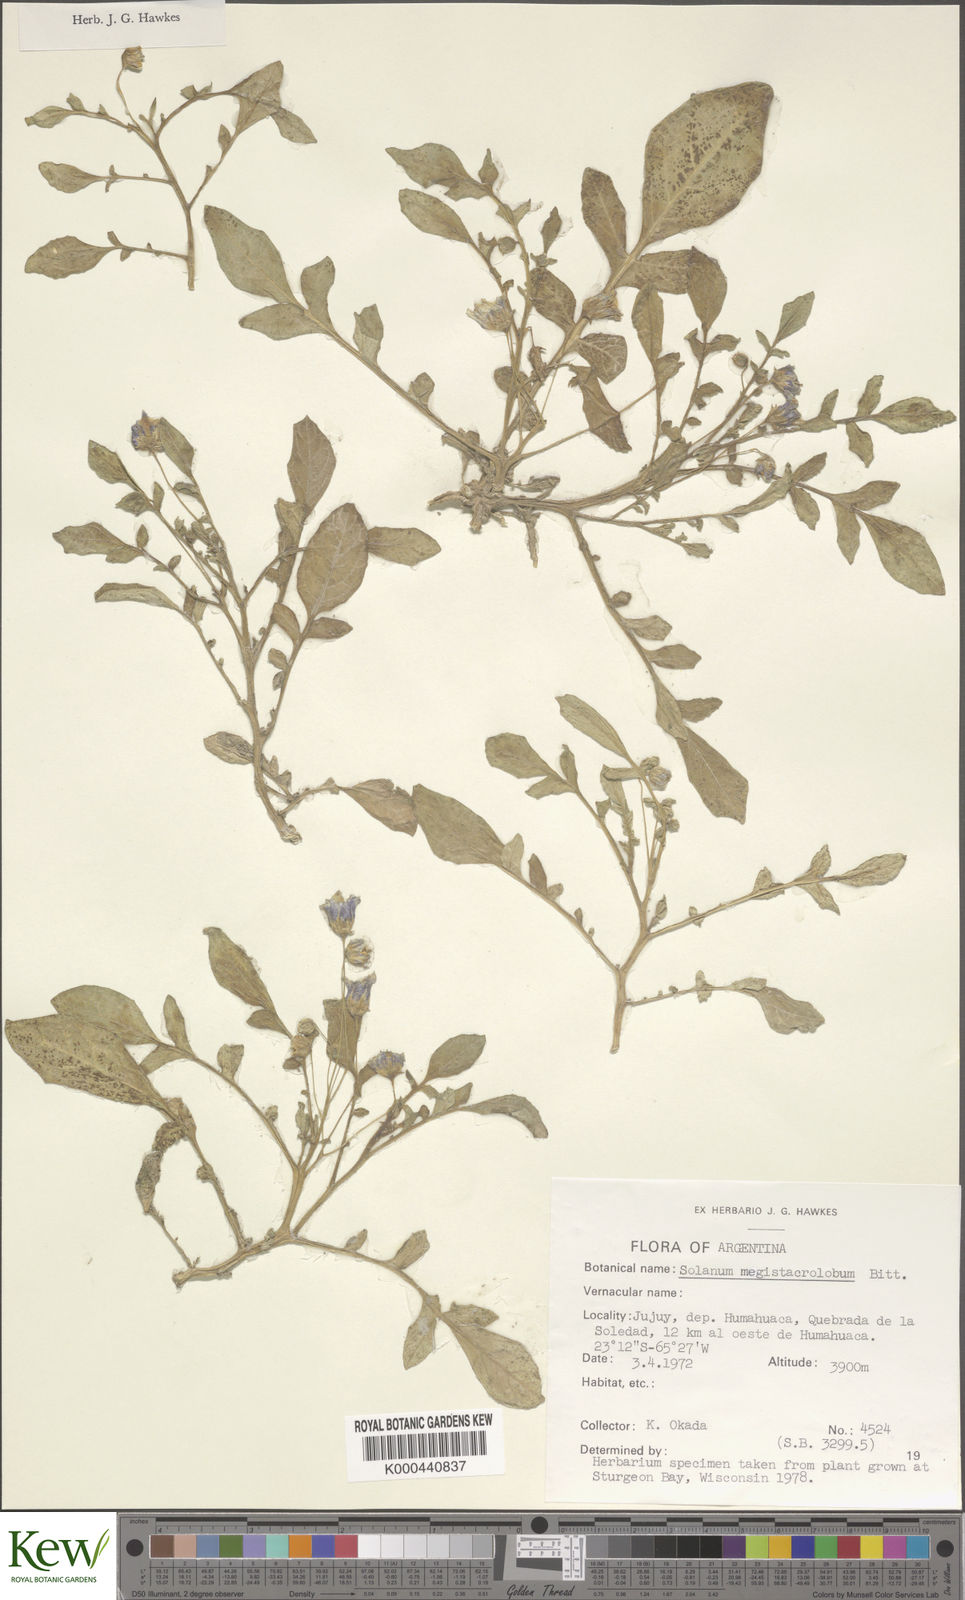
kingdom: Plantae
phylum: Tracheophyta
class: Magnoliopsida
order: Solanales
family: Solanaceae
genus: Solanum
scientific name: Solanum boliviense
